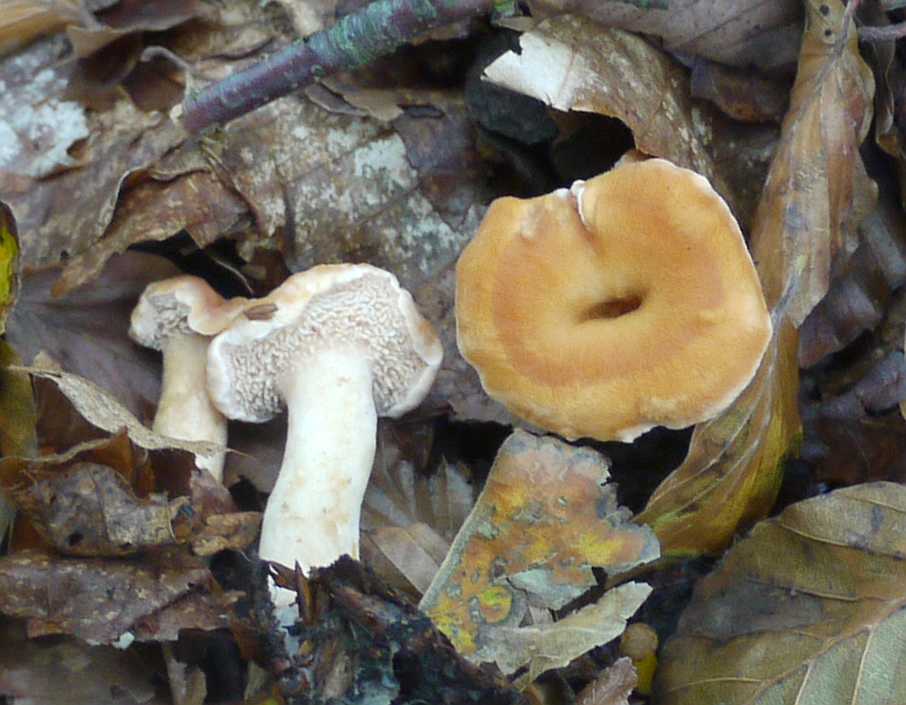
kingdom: Fungi
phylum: Basidiomycota
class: Agaricomycetes
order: Cantharellales
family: Hydnaceae
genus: Hydnum
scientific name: Hydnum umbilicatum
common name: navle-pigsvamp
